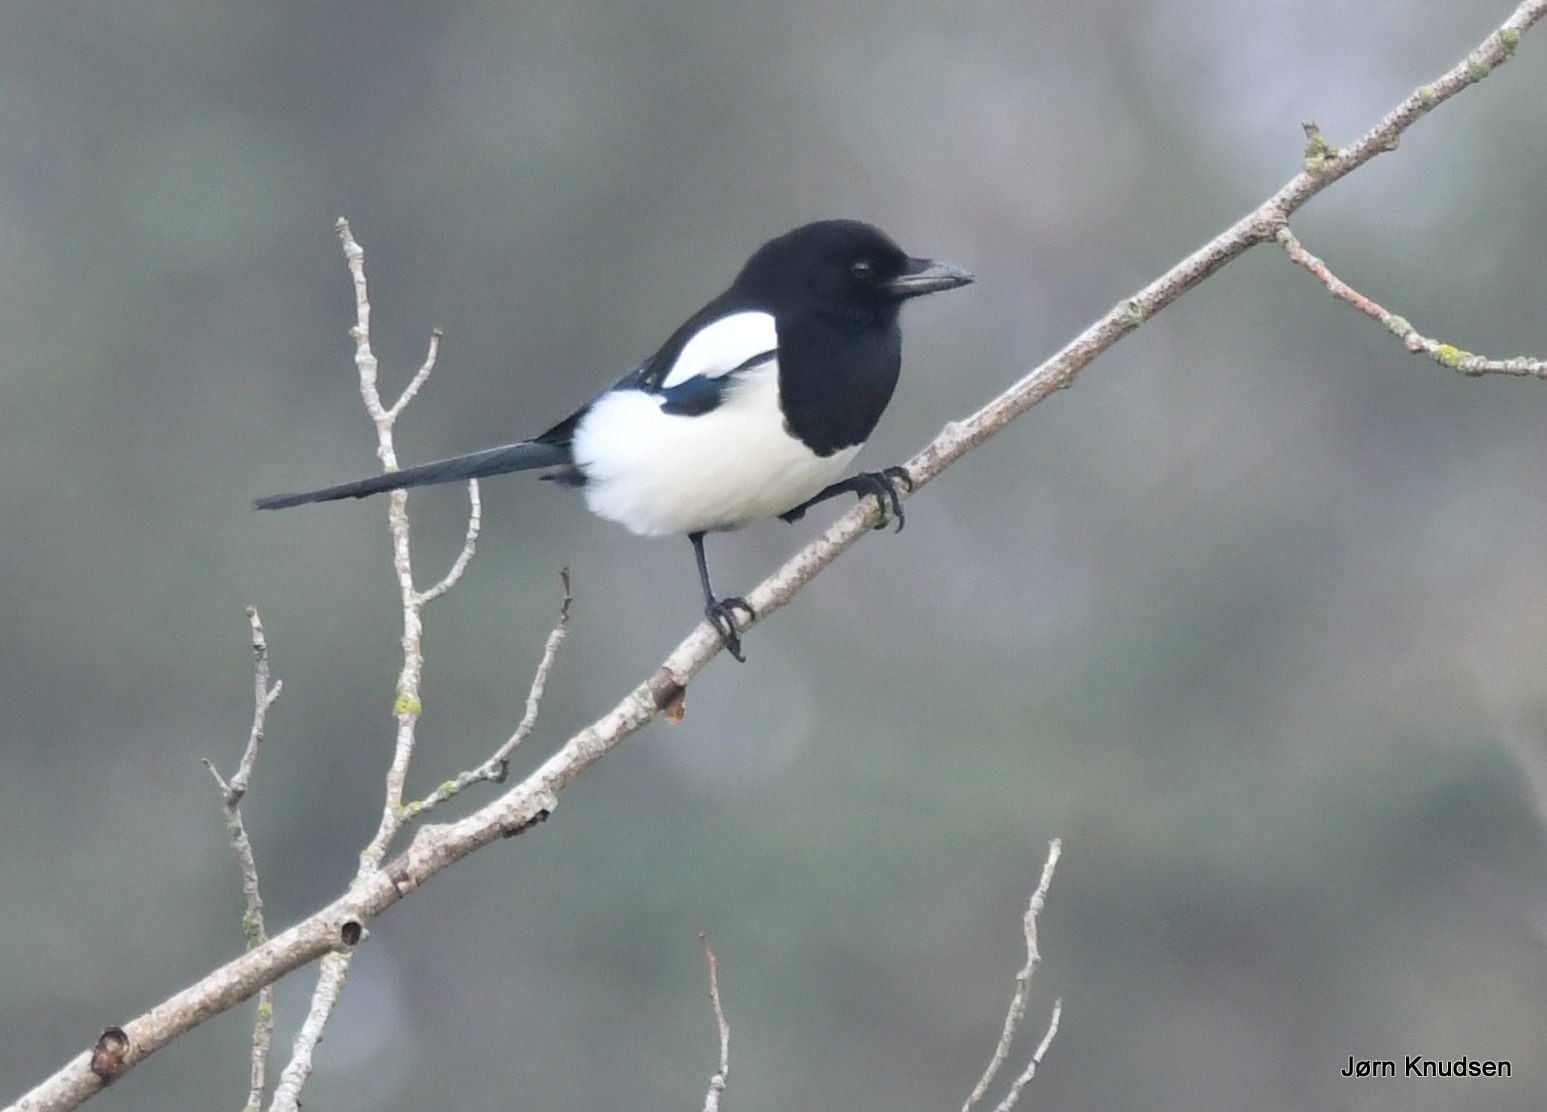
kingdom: Animalia
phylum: Chordata
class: Aves
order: Passeriformes
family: Corvidae
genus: Pica
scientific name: Pica pica
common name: Husskade
